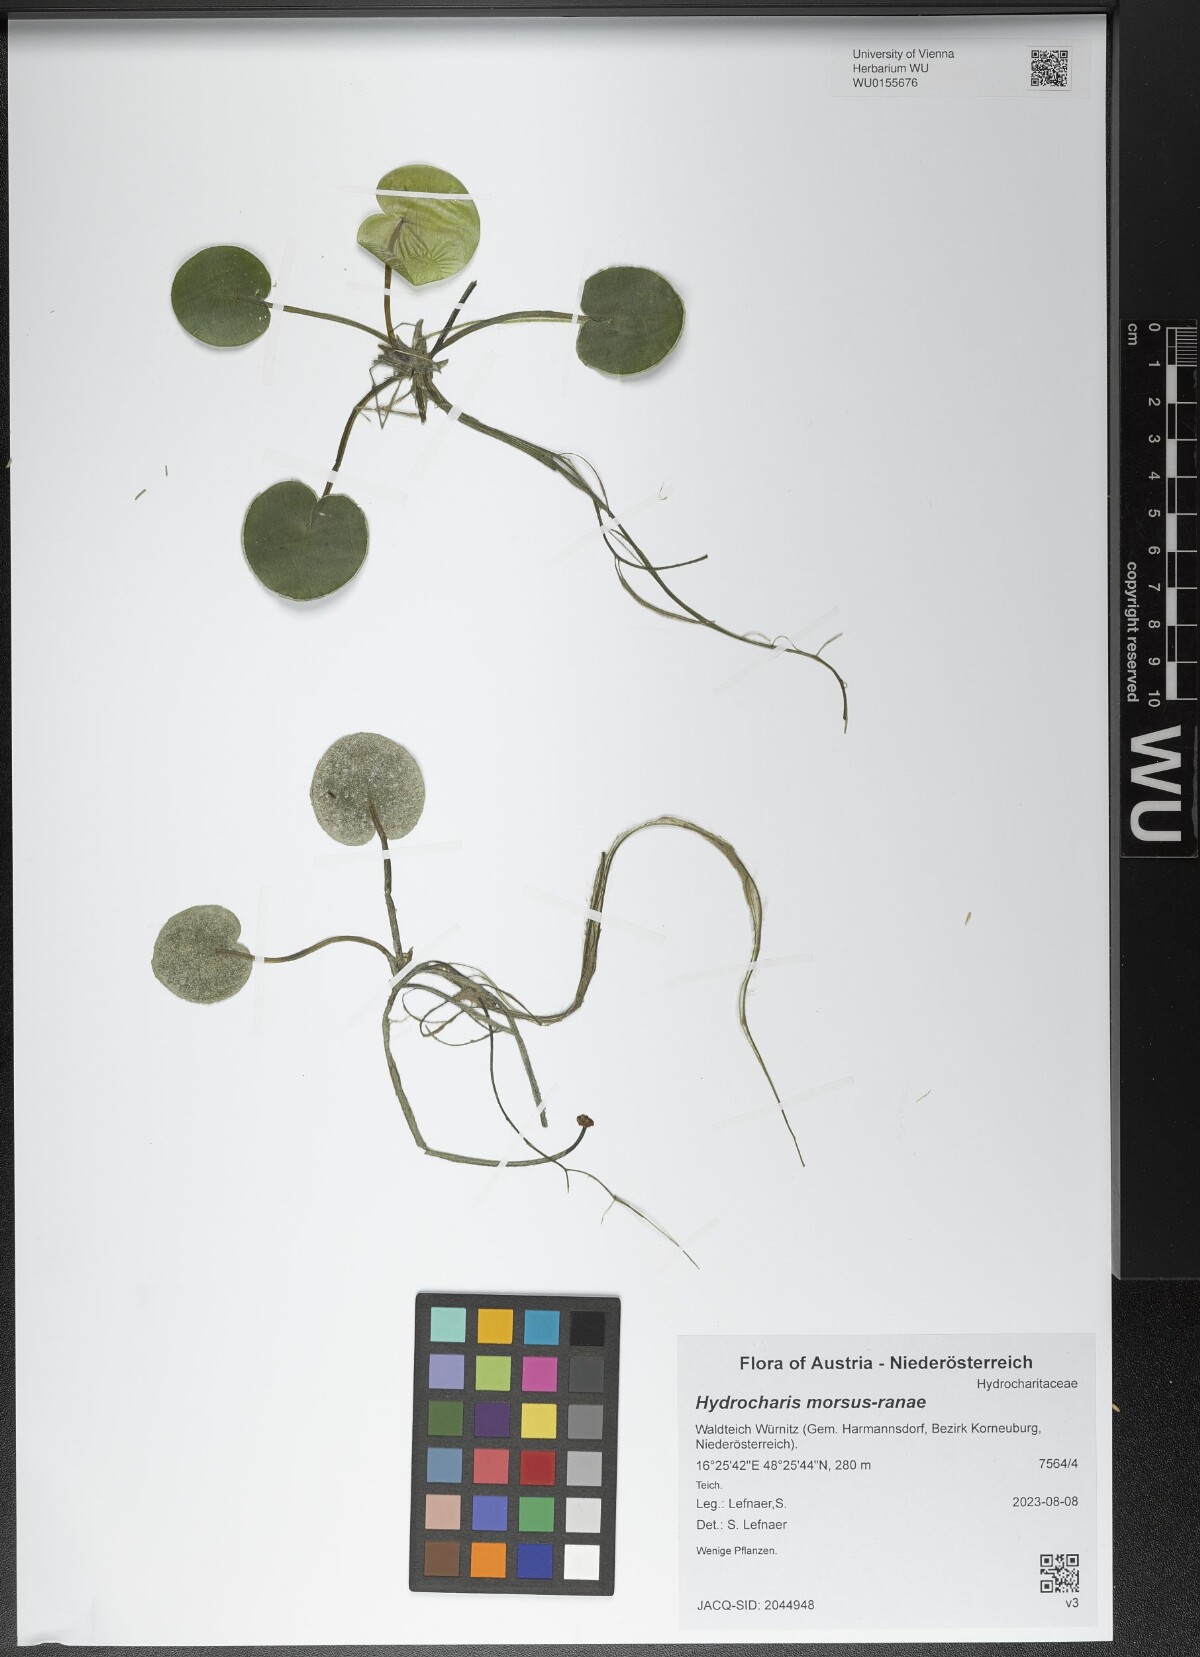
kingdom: Plantae
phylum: Tracheophyta
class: Liliopsida
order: Alismatales
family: Hydrocharitaceae
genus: Hydrocharis
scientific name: Hydrocharis morsus-ranae
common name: Frogbit
